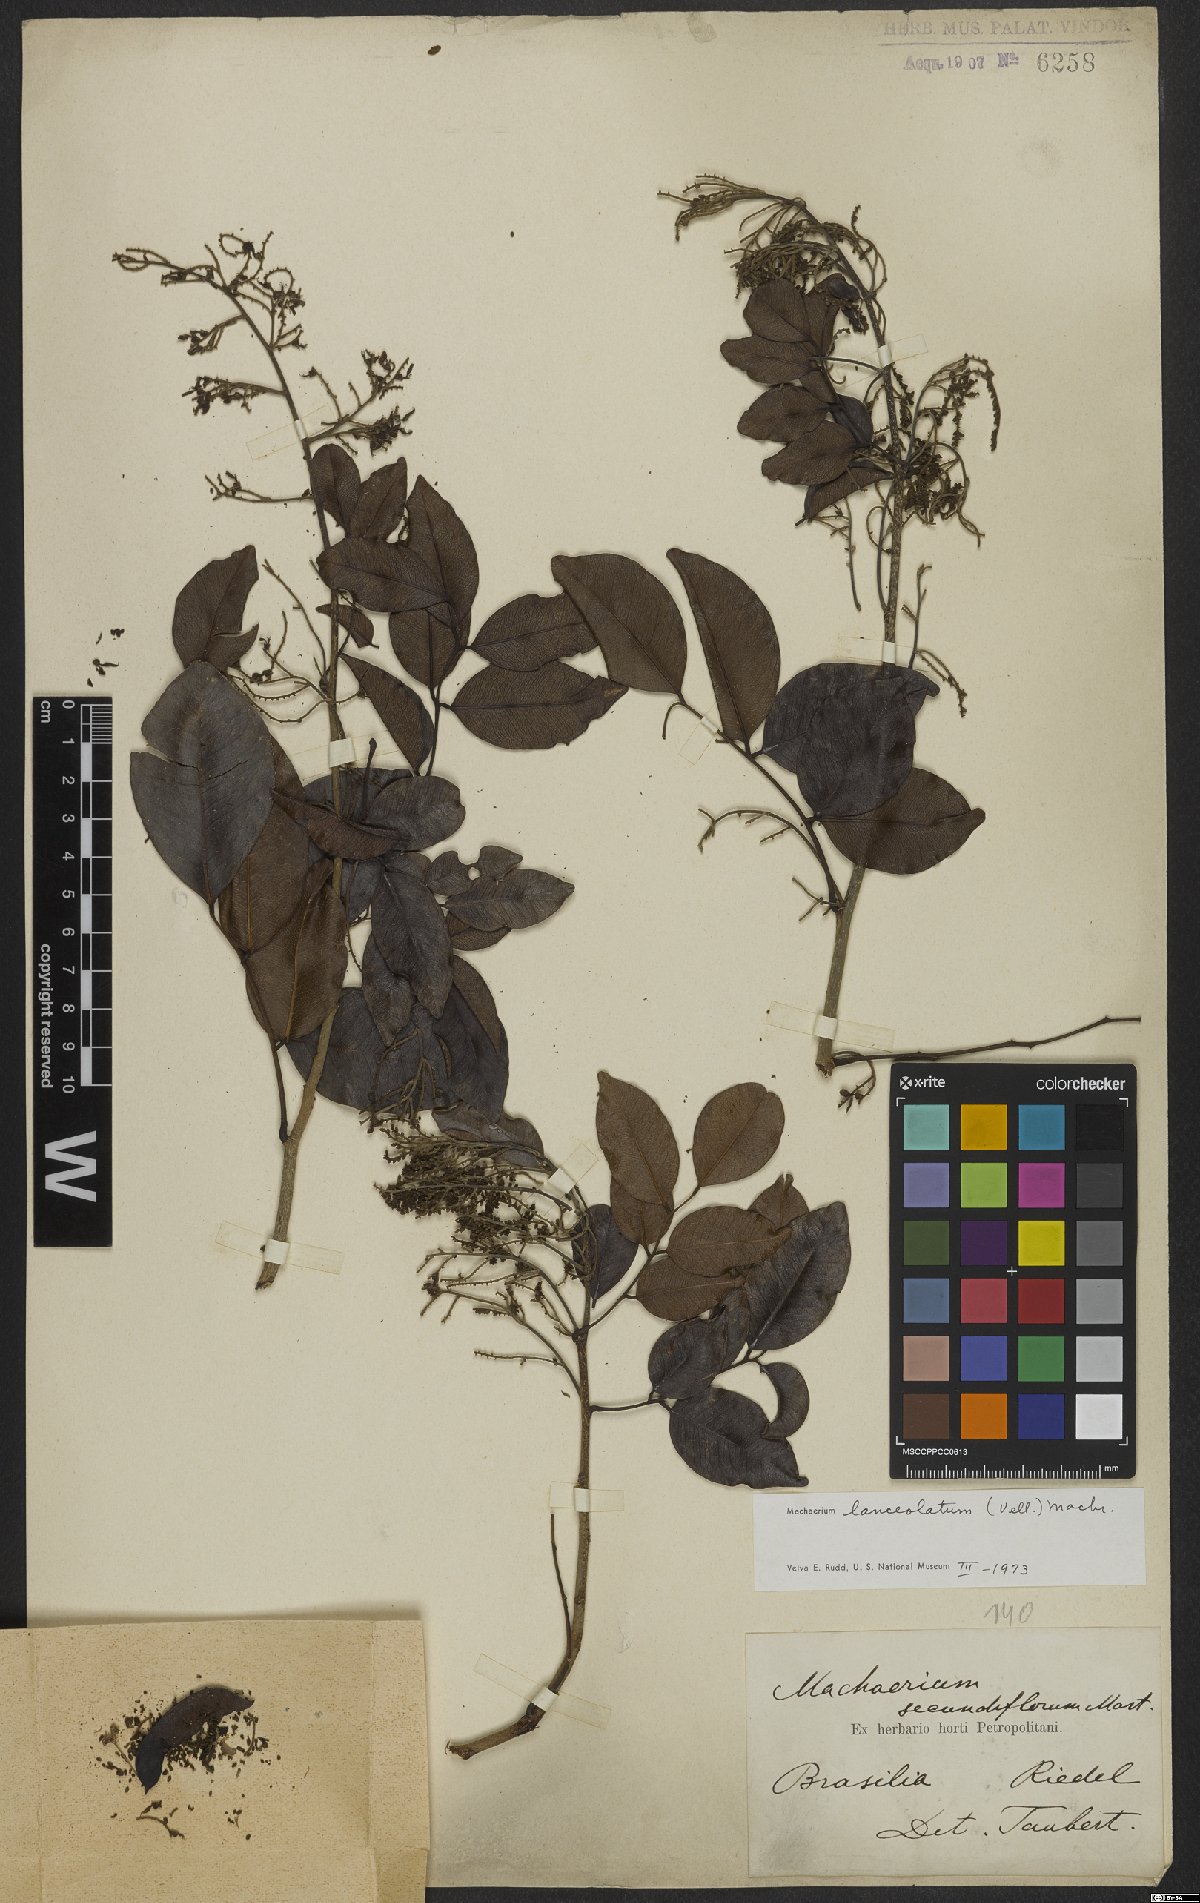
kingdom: Plantae
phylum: Tracheophyta
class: Magnoliopsida
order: Fabales
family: Fabaceae
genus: Machaerium
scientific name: Machaerium lanceolatum
